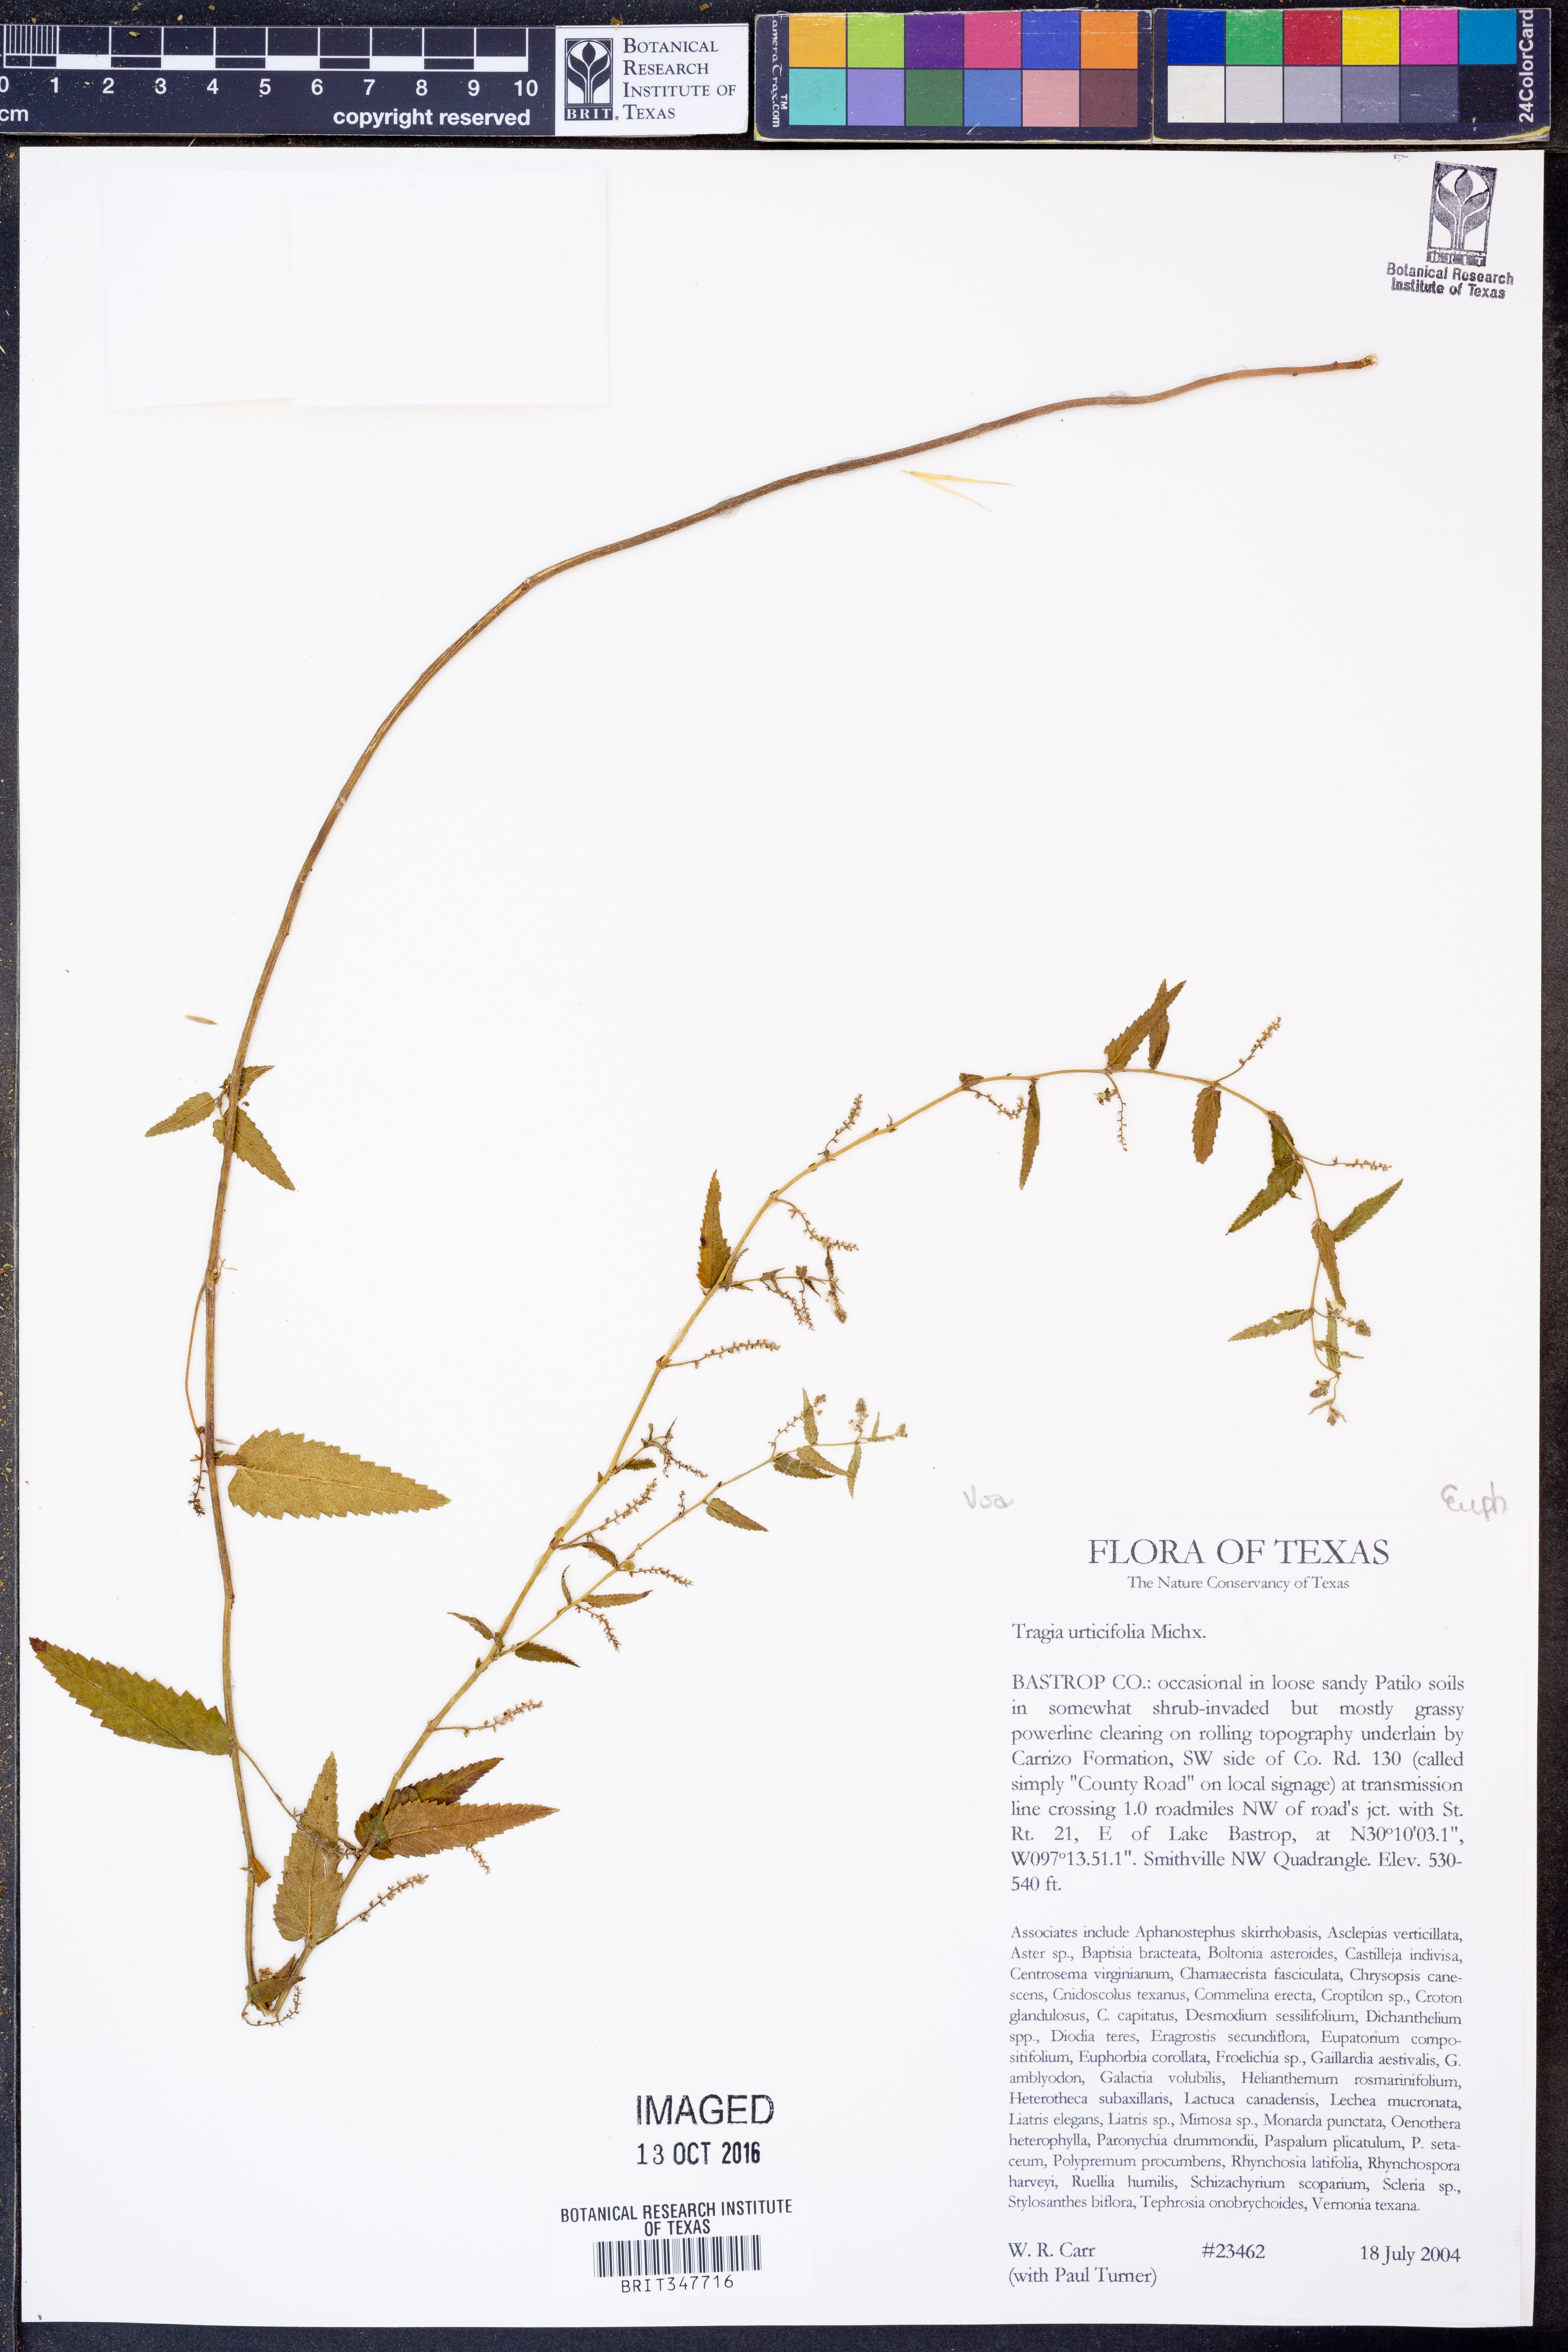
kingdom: Plantae
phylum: Tracheophyta
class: Magnoliopsida
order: Malpighiales
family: Euphorbiaceae
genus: Tragia
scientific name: Tragia urticifolia
